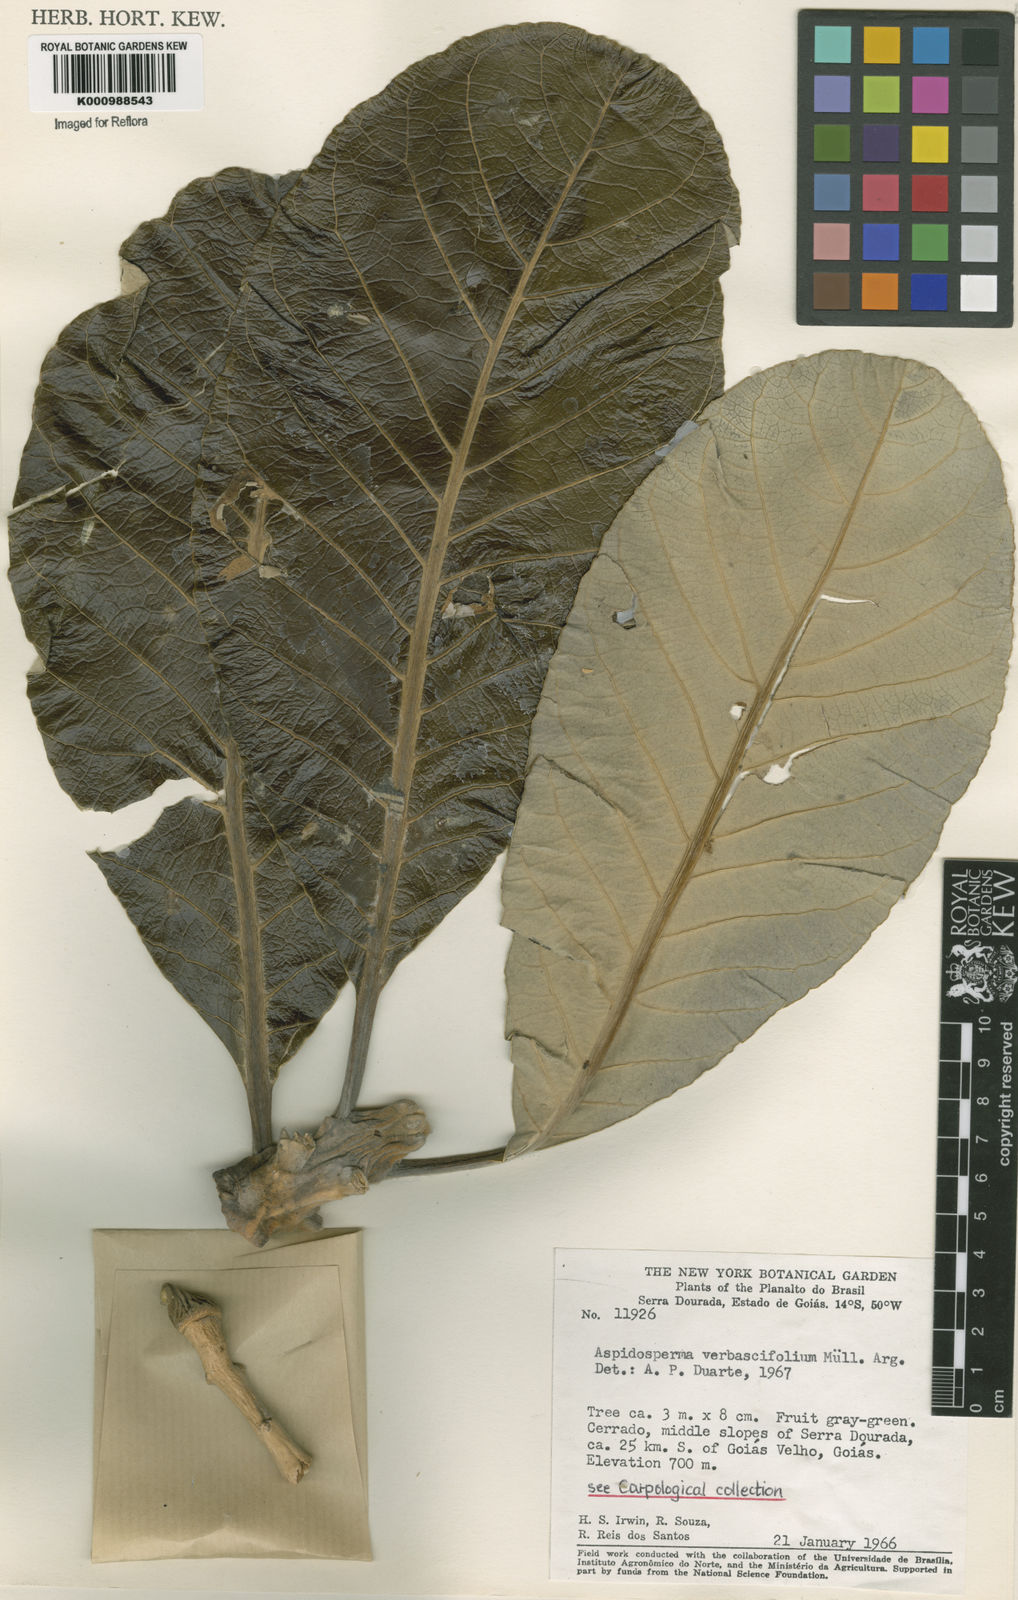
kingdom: Plantae
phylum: Tracheophyta
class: Magnoliopsida
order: Gentianales
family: Apocynaceae
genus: Aspidosperma
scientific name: Aspidosperma
